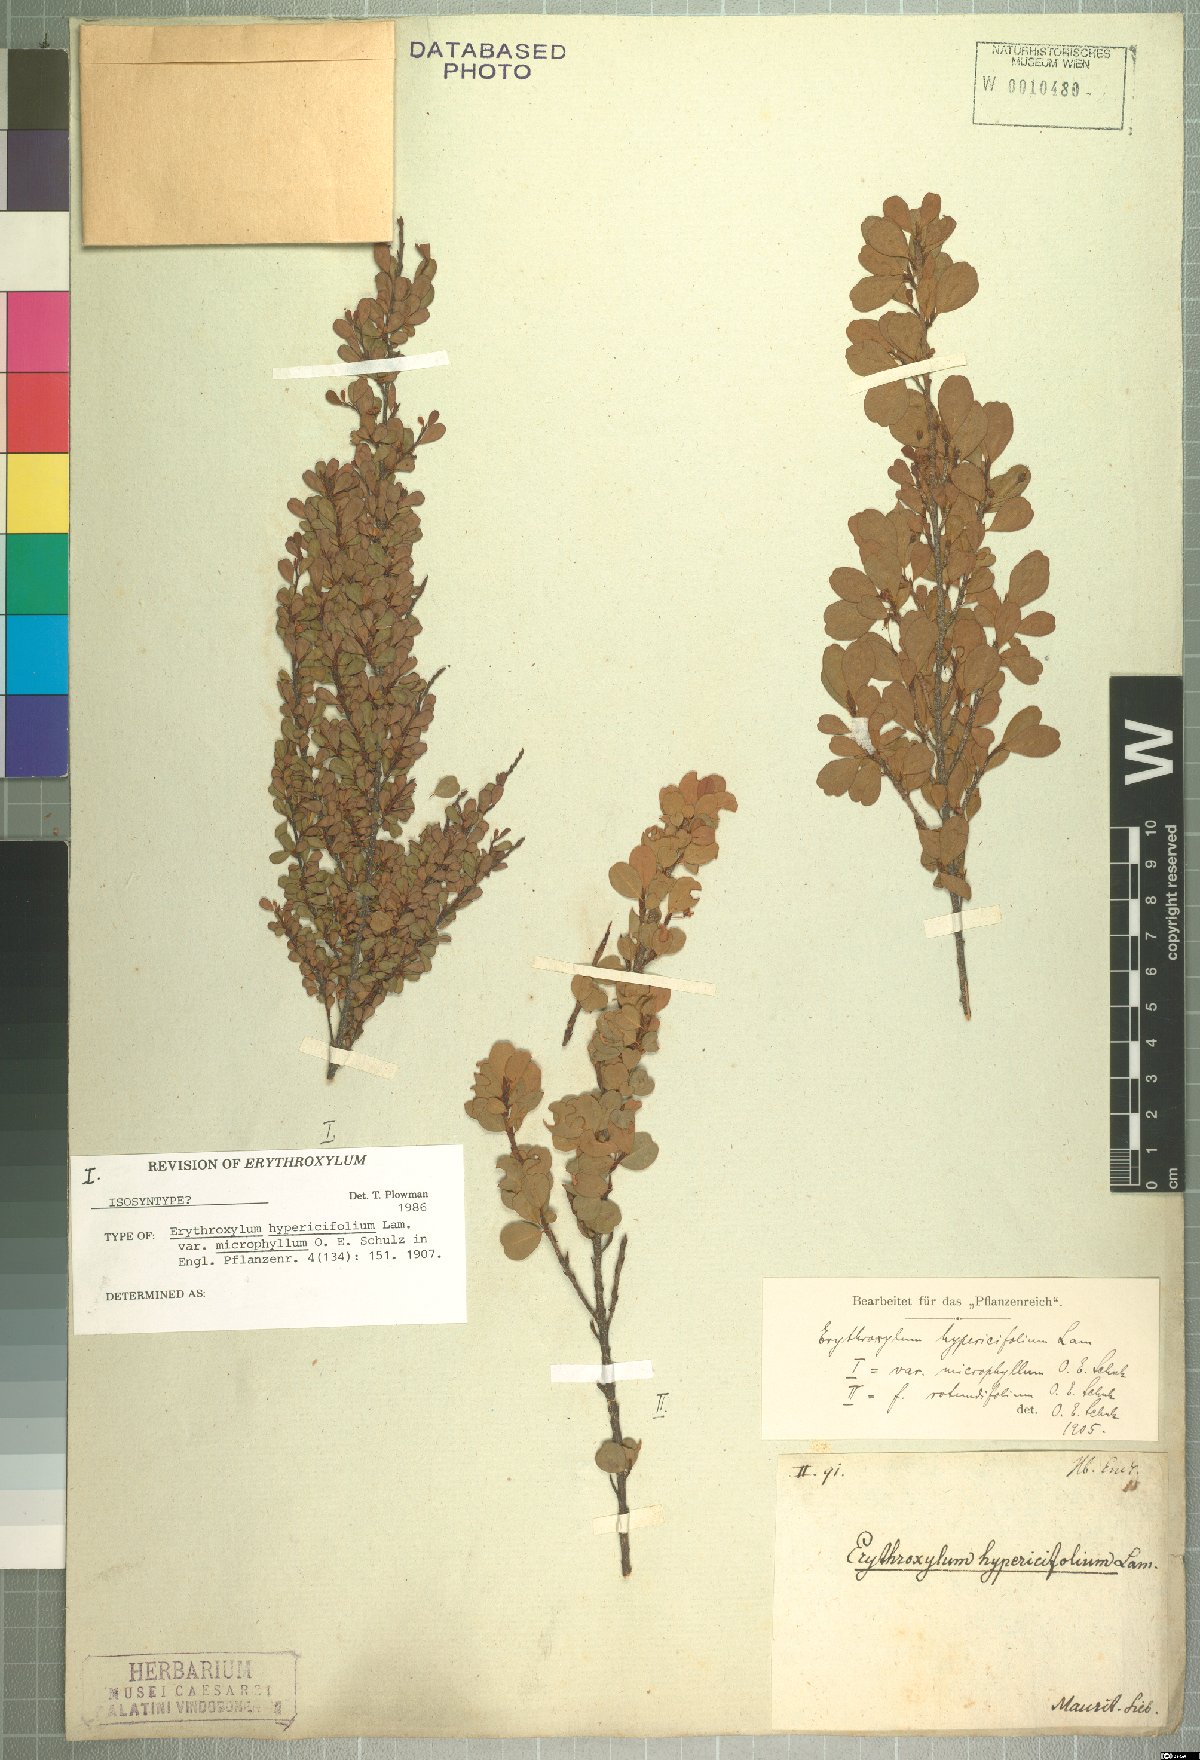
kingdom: Plantae
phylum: Tracheophyta
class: Magnoliopsida
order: Malpighiales
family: Erythroxylaceae
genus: Erythroxylum
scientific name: Erythroxylum hypericifolium
